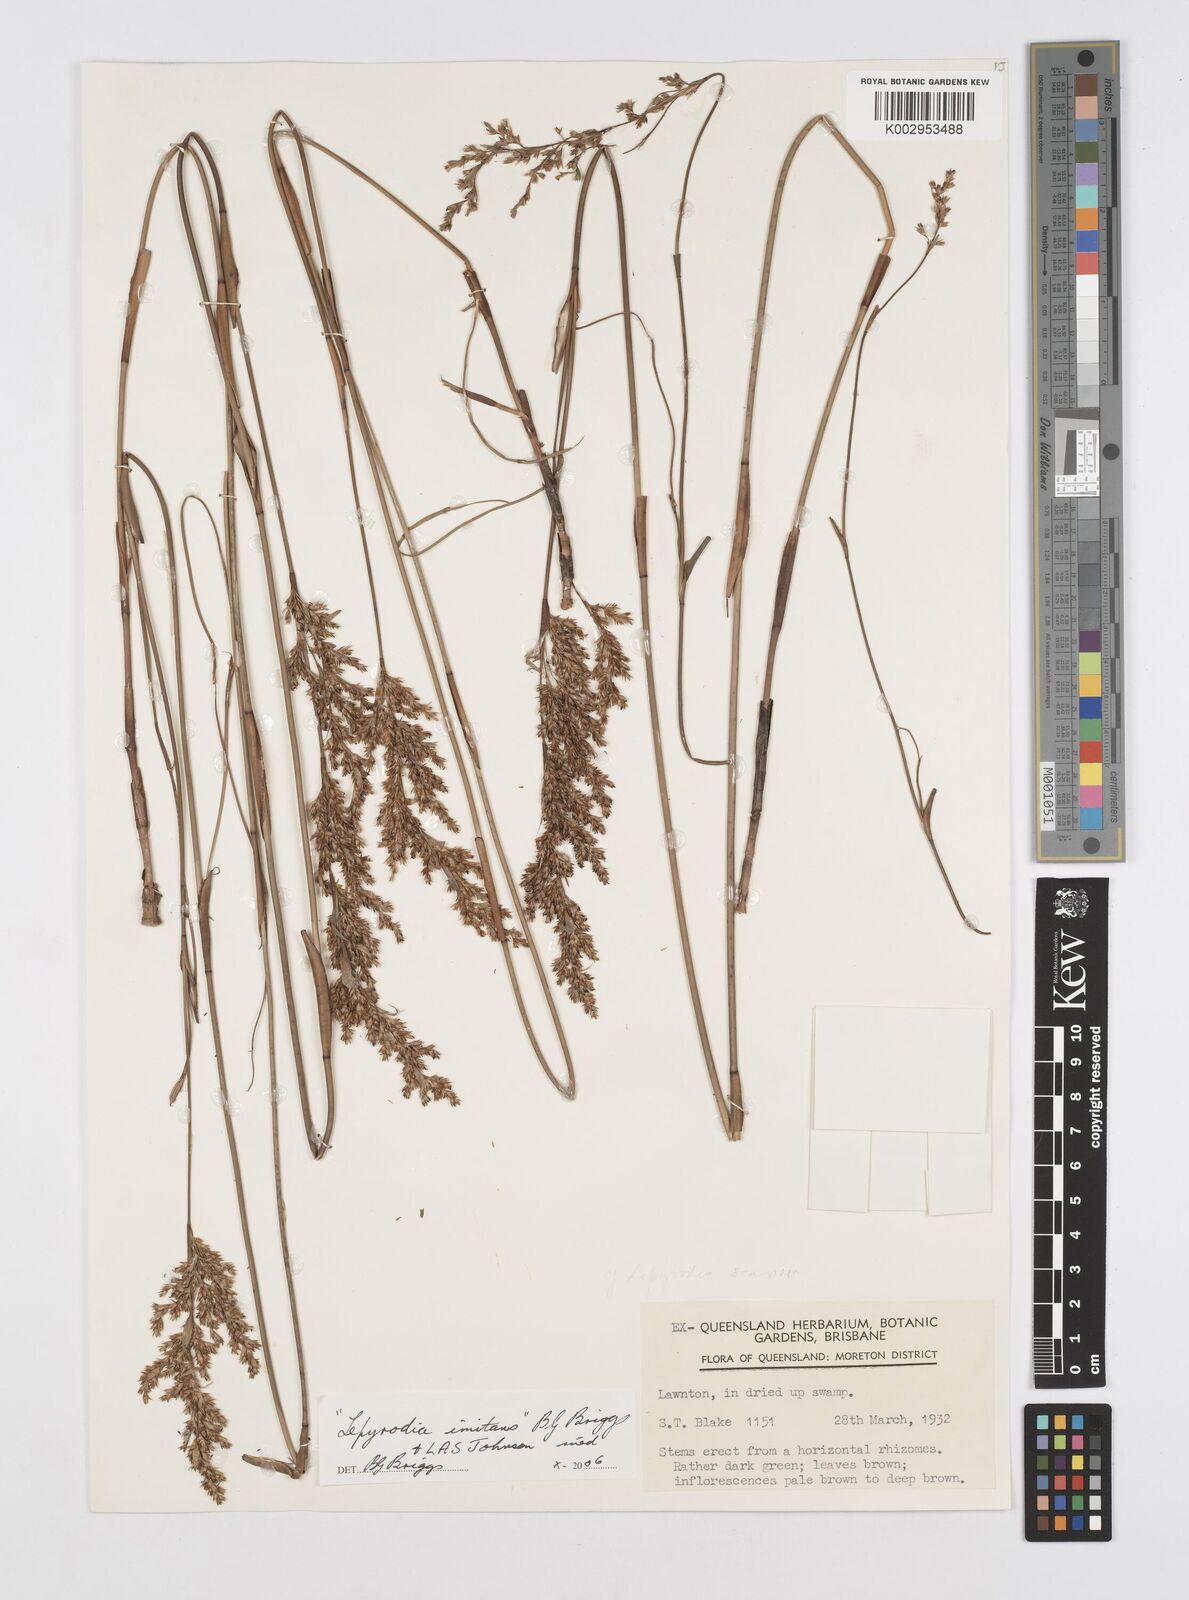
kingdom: Plantae
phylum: Tracheophyta
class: Liliopsida
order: Poales
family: Restionaceae
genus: Lepyrodia
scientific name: Lepyrodia imitans
